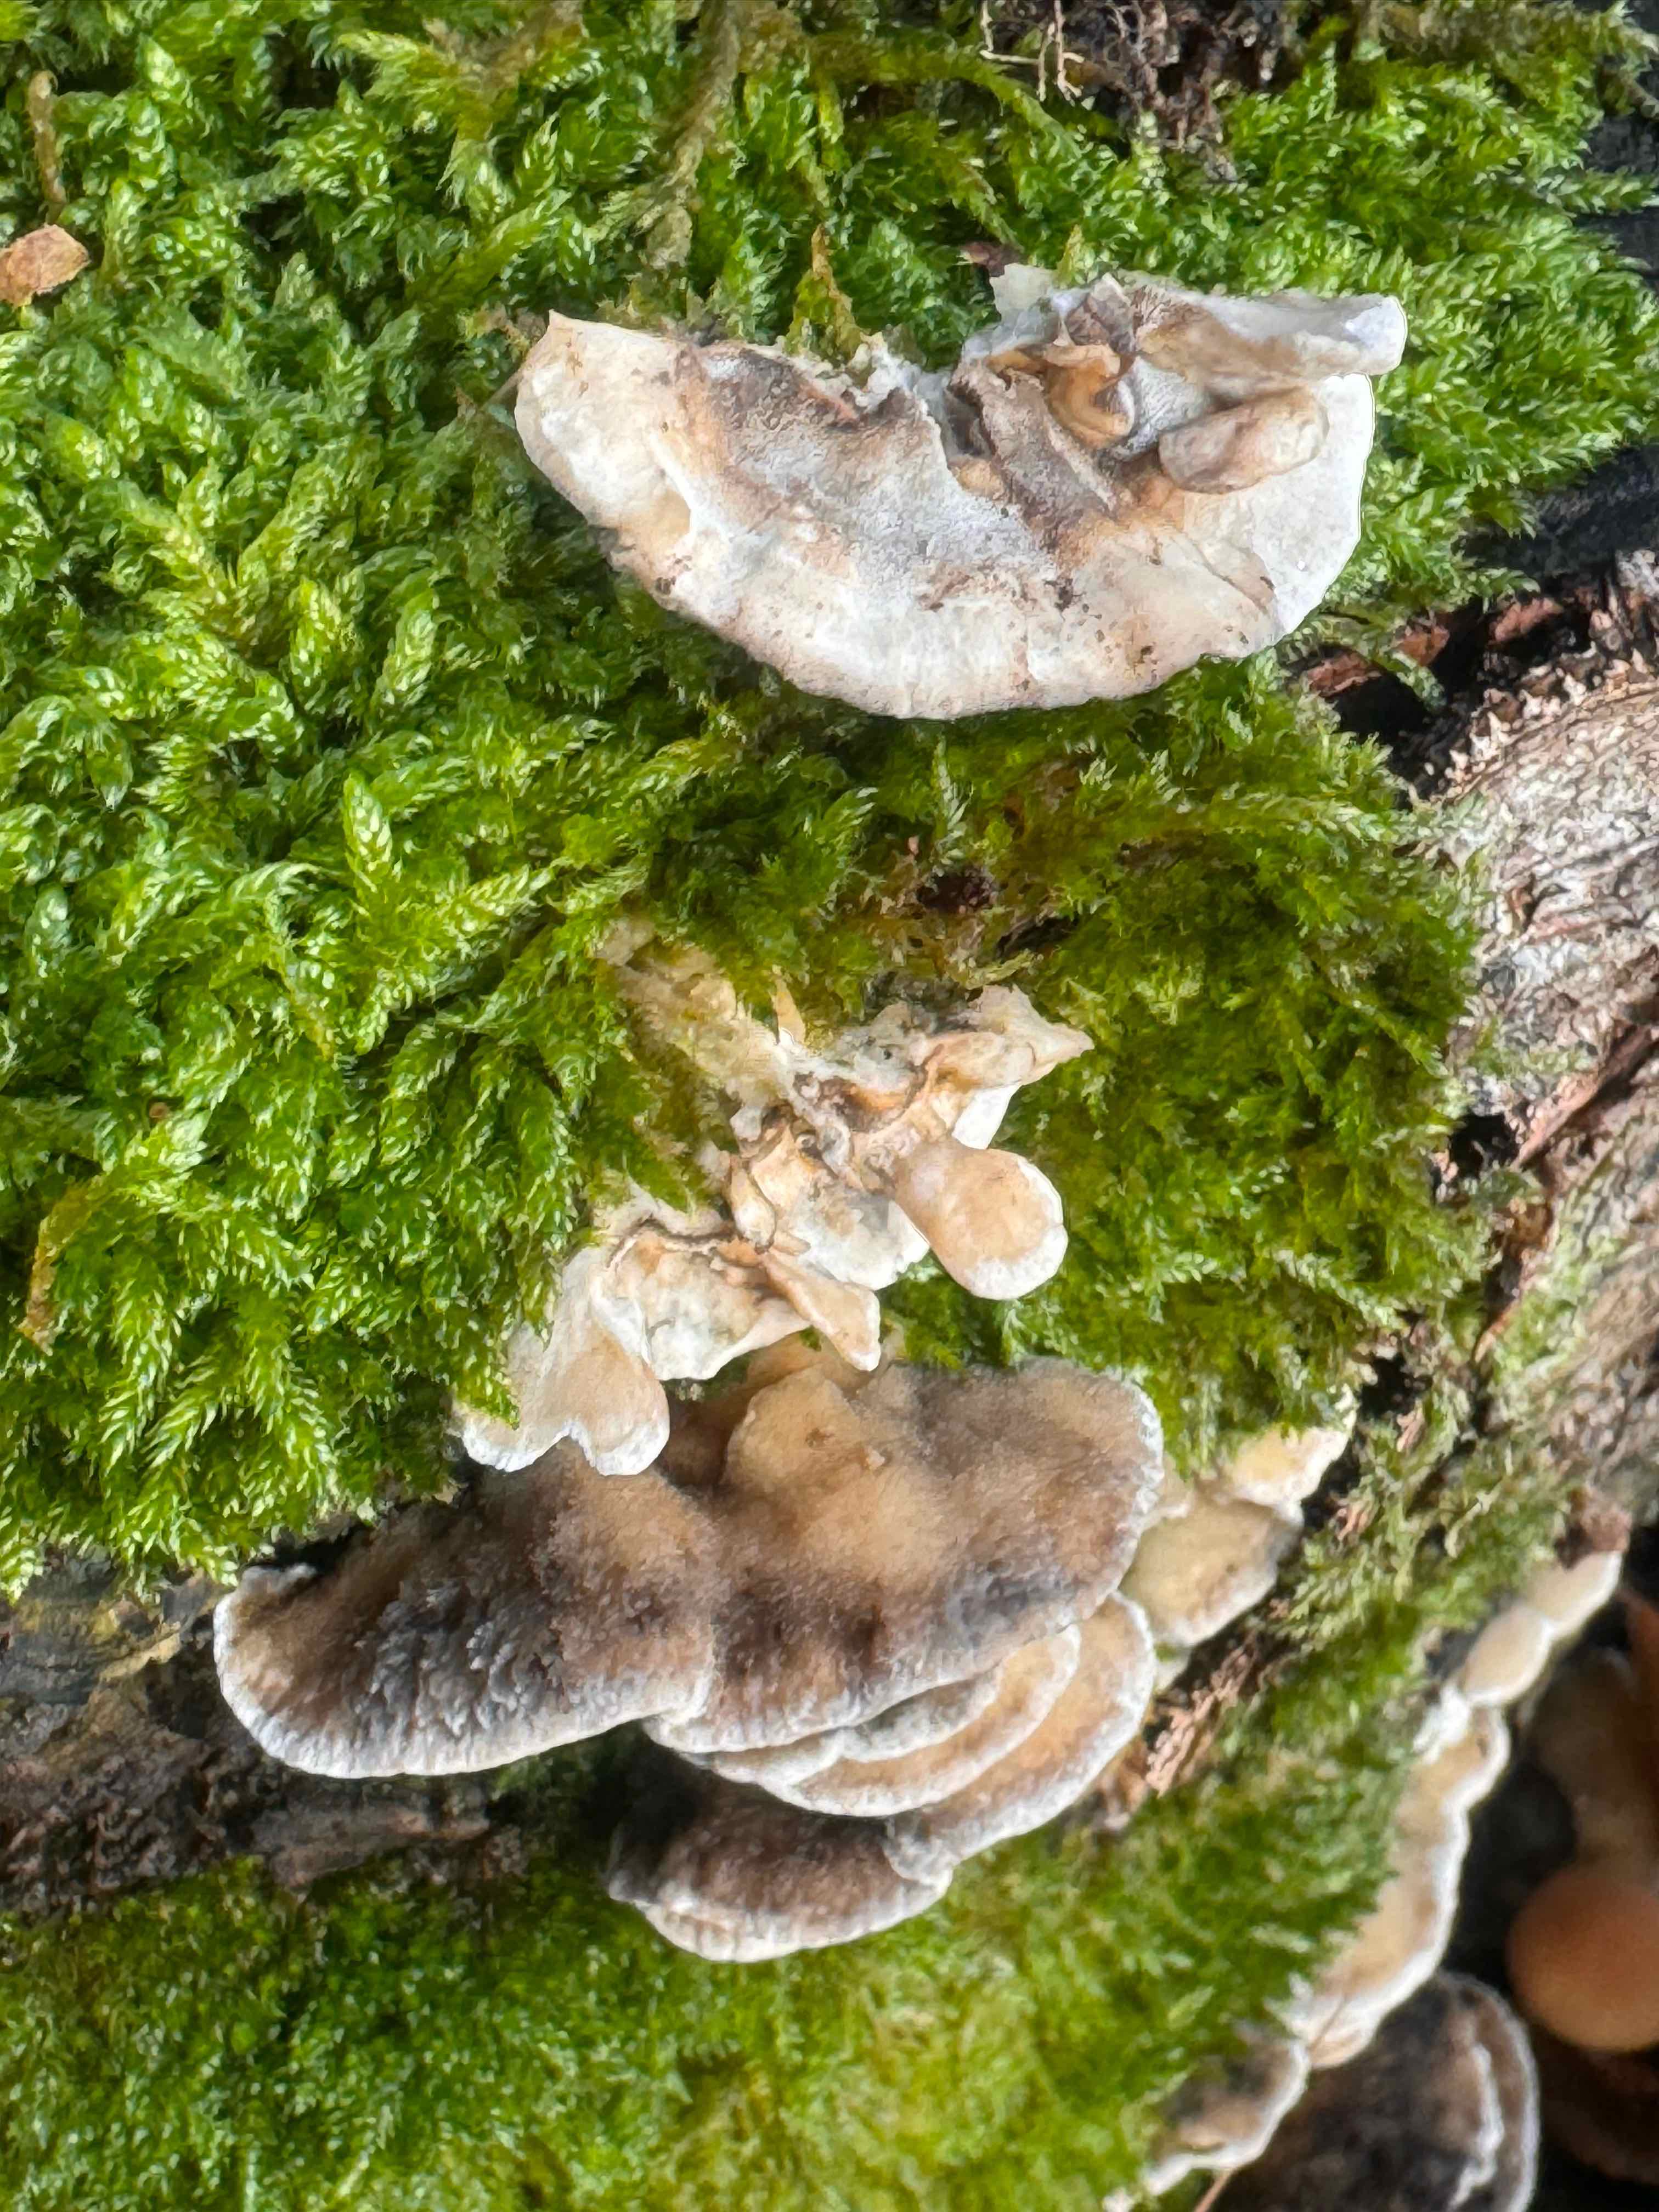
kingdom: Fungi
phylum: Basidiomycota
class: Agaricomycetes
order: Polyporales
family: Phanerochaetaceae
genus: Bjerkandera
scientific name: Bjerkandera adusta
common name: sveden sodporesvamp
